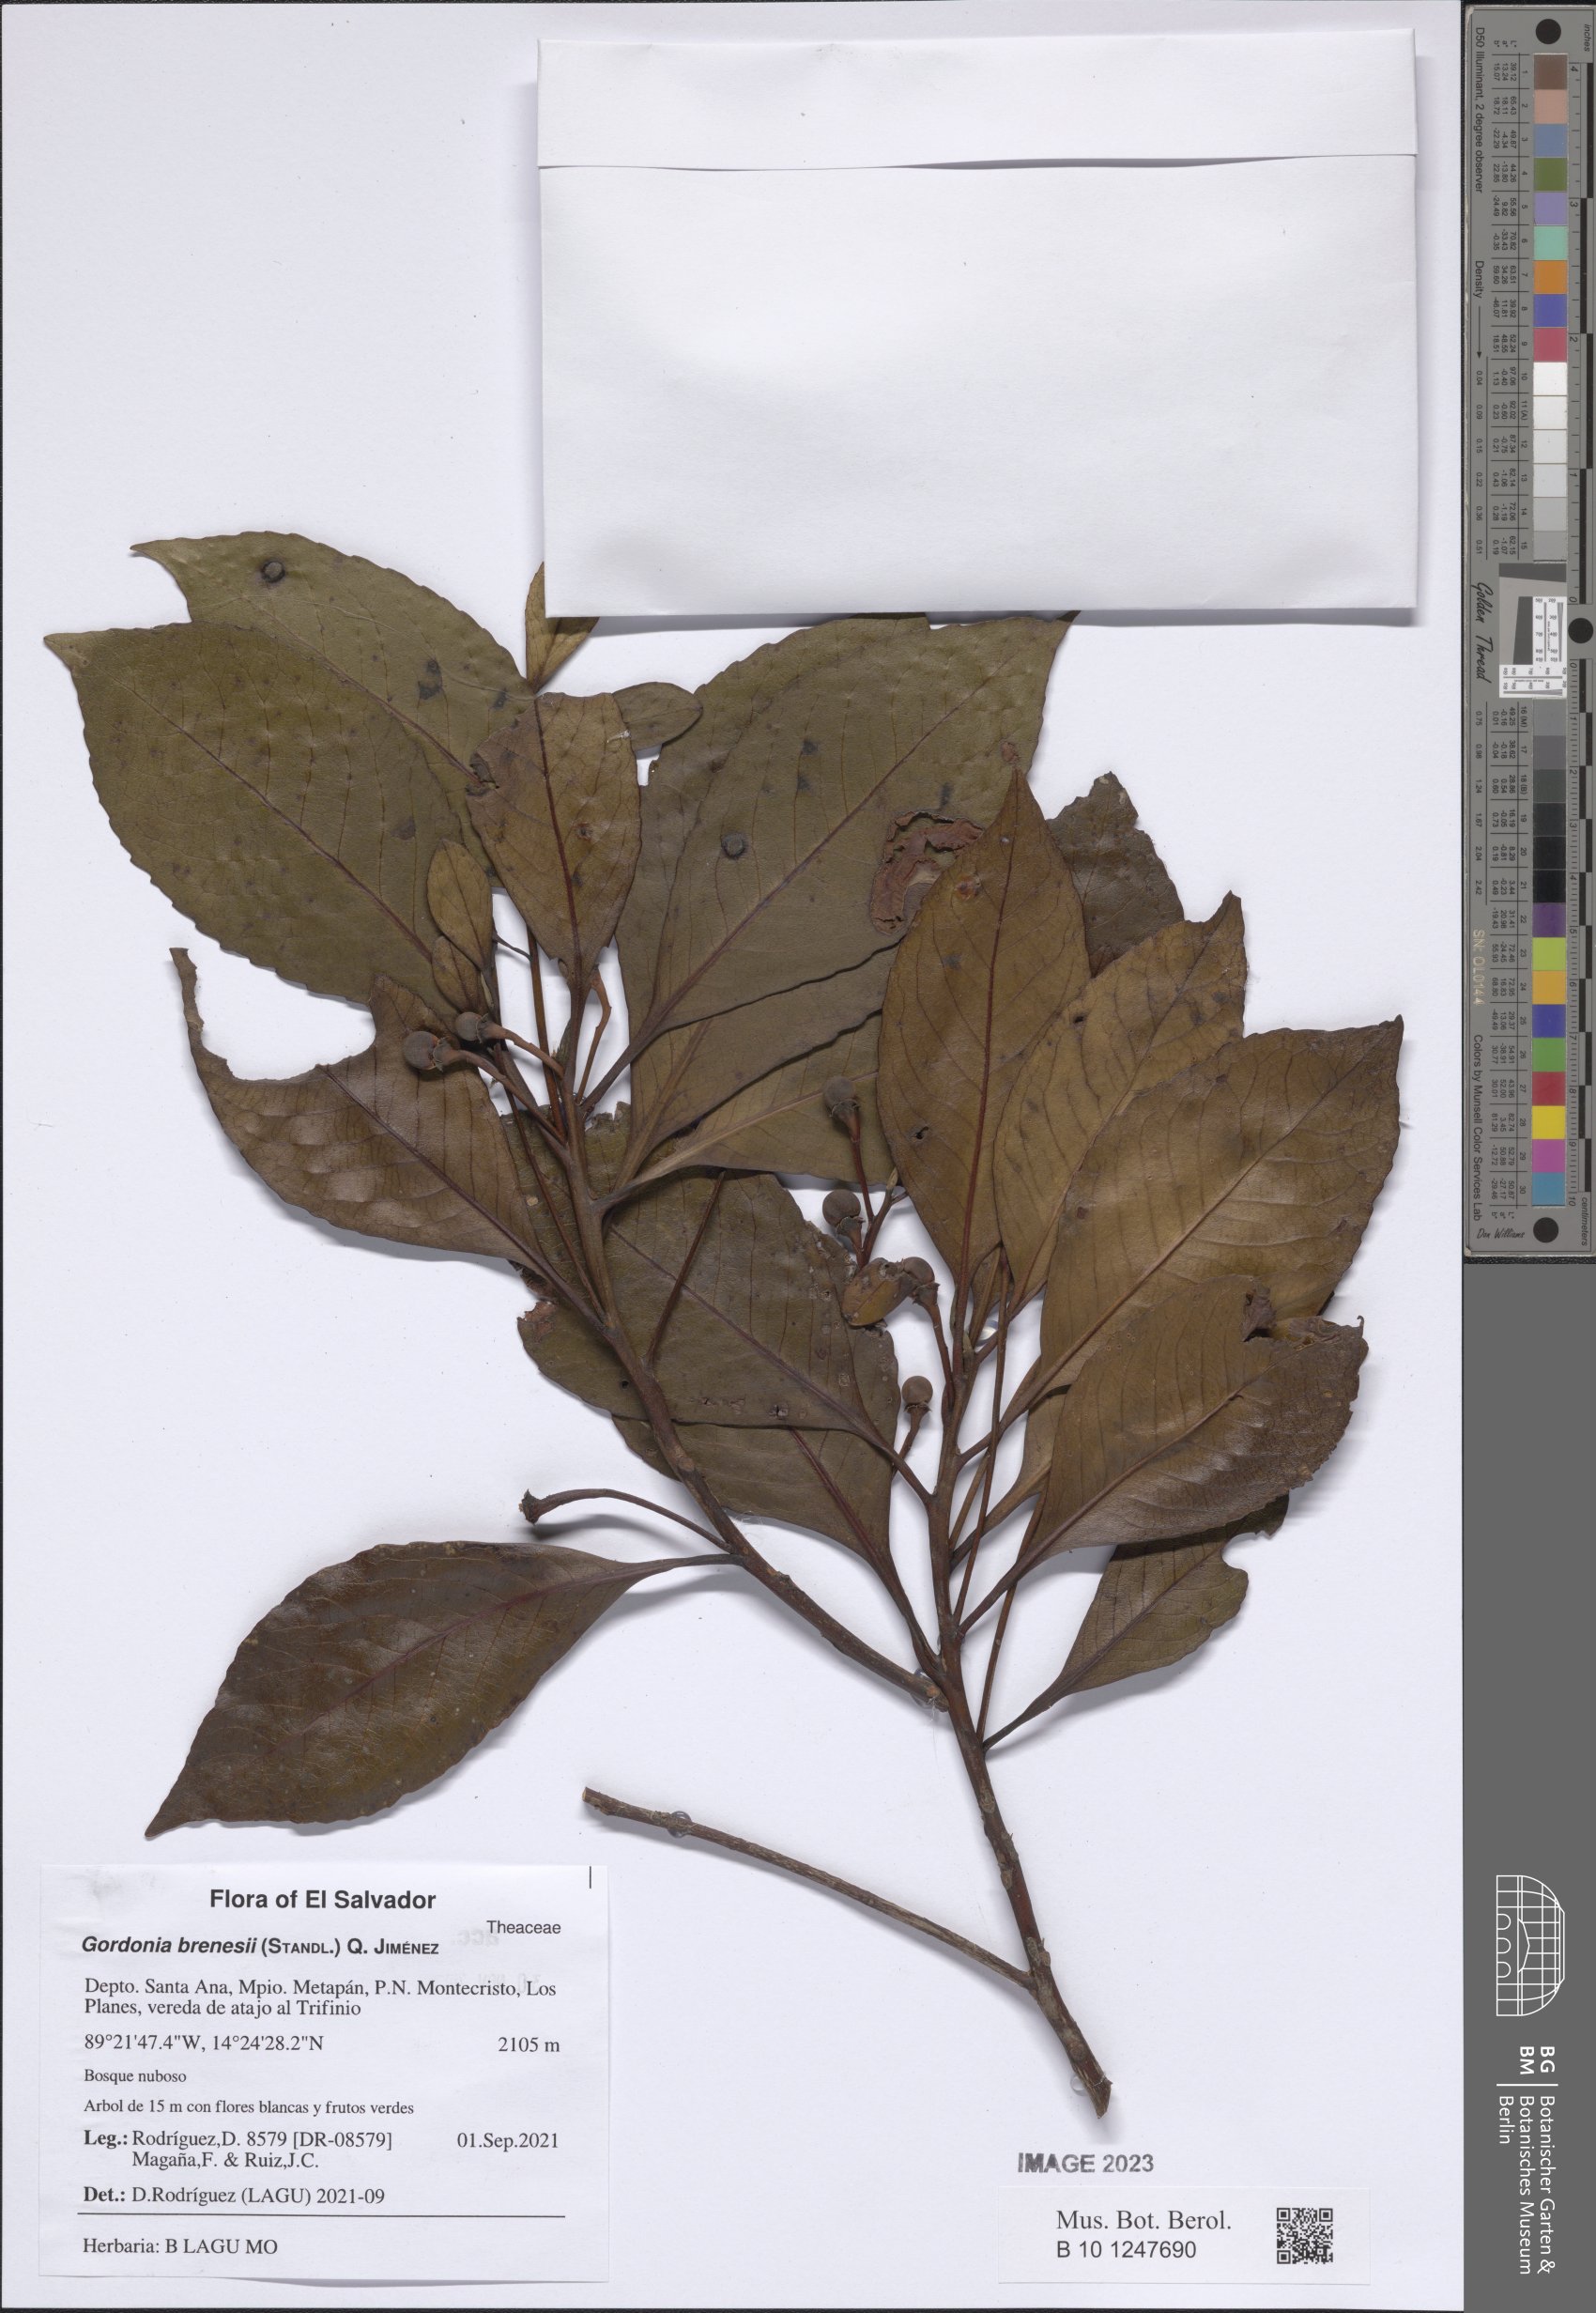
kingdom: Plantae
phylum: Tracheophyta
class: Magnoliopsida
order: Ericales
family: Theaceae
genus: Gordonia
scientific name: Gordonia brenesii
